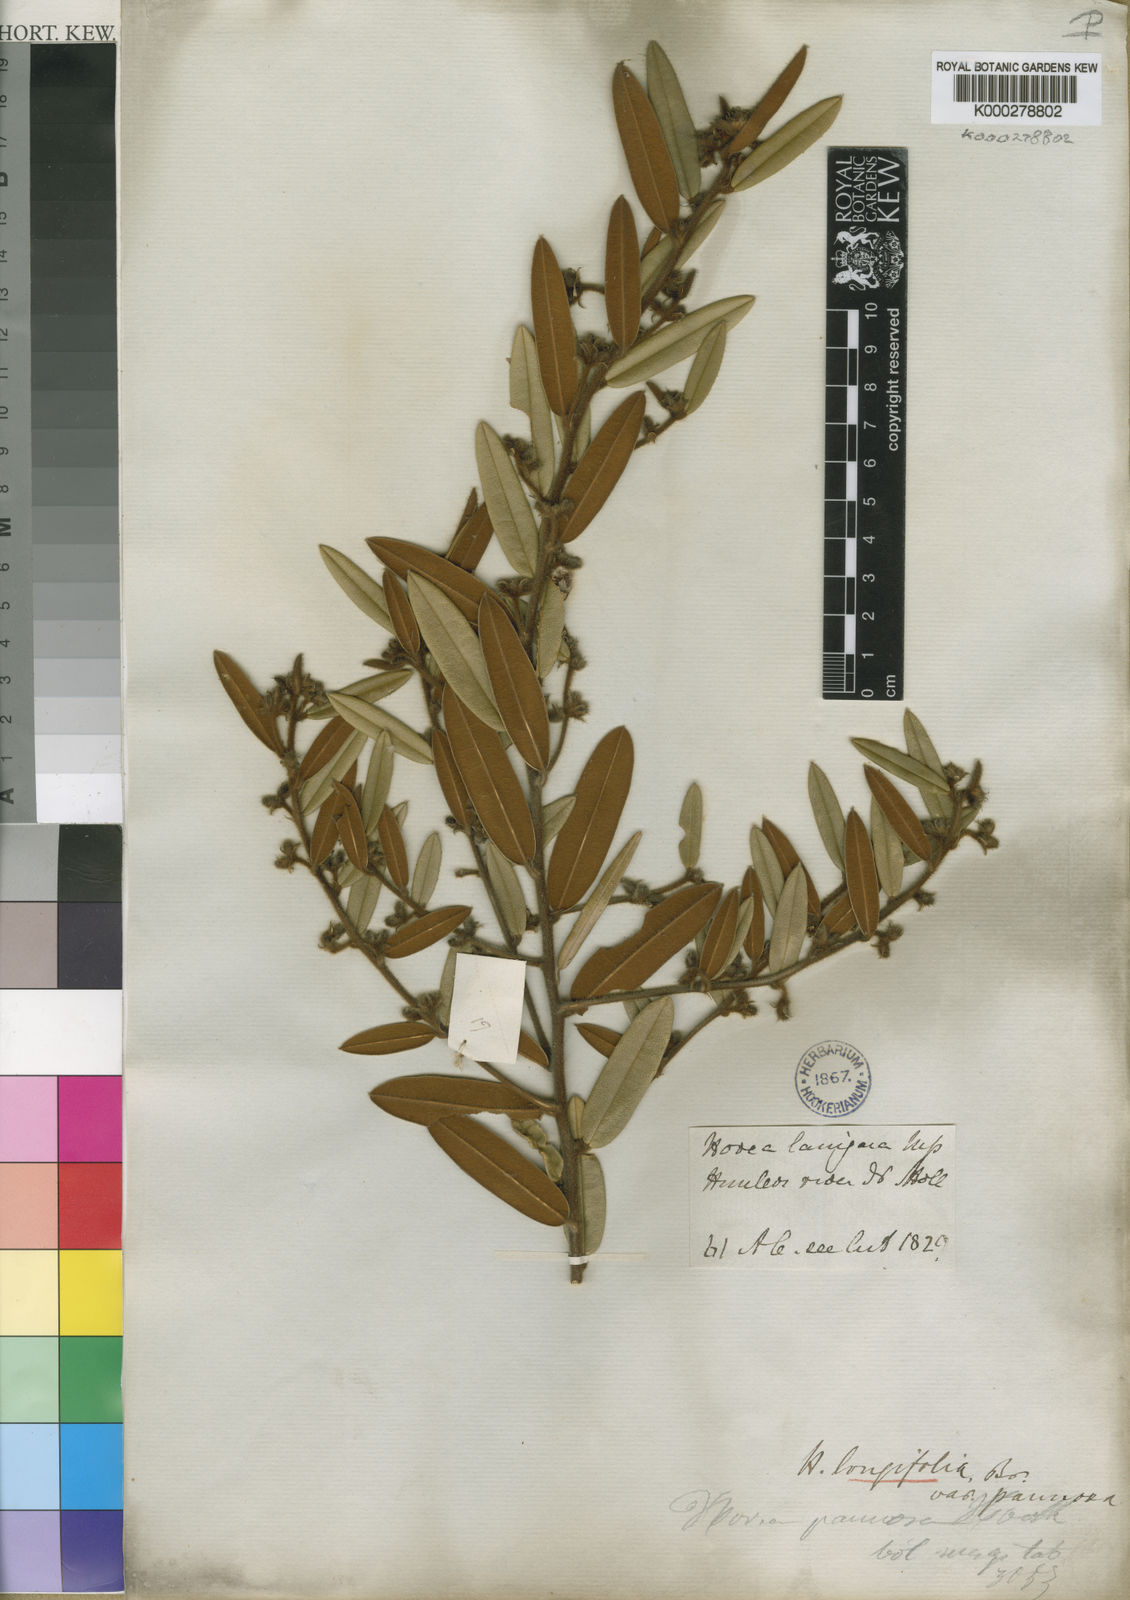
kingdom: Plantae
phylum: Tracheophyta
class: Magnoliopsida
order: Fabales
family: Fabaceae
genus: Hovea
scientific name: Hovea pannosa
